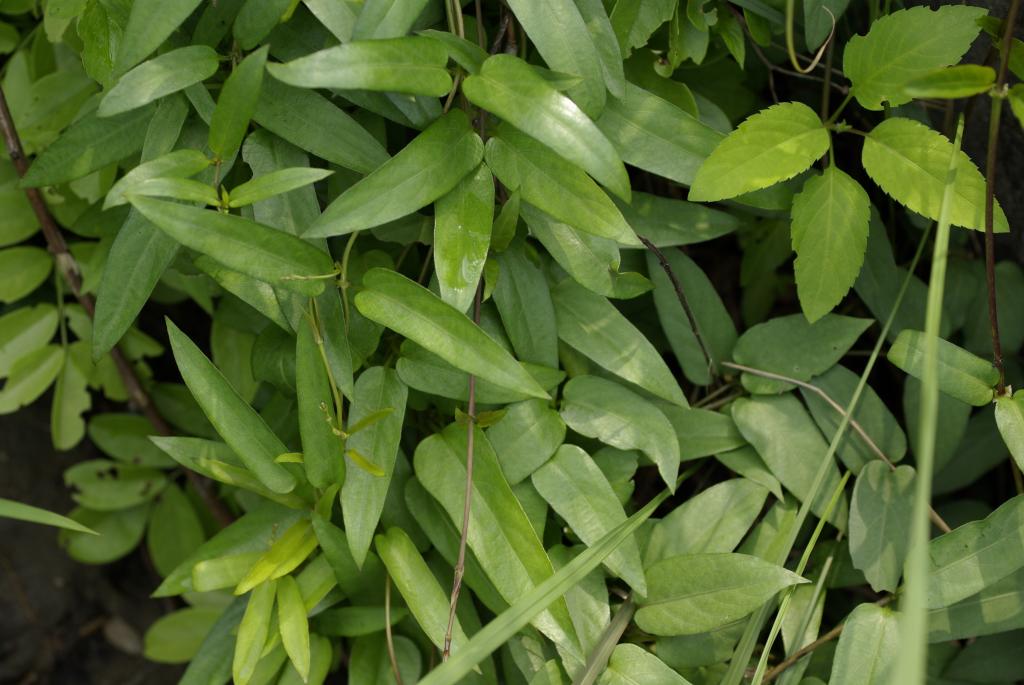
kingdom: Plantae
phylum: Tracheophyta
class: Magnoliopsida
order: Gentianales
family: Rubiaceae
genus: Paederia
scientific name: Paederia foetida
